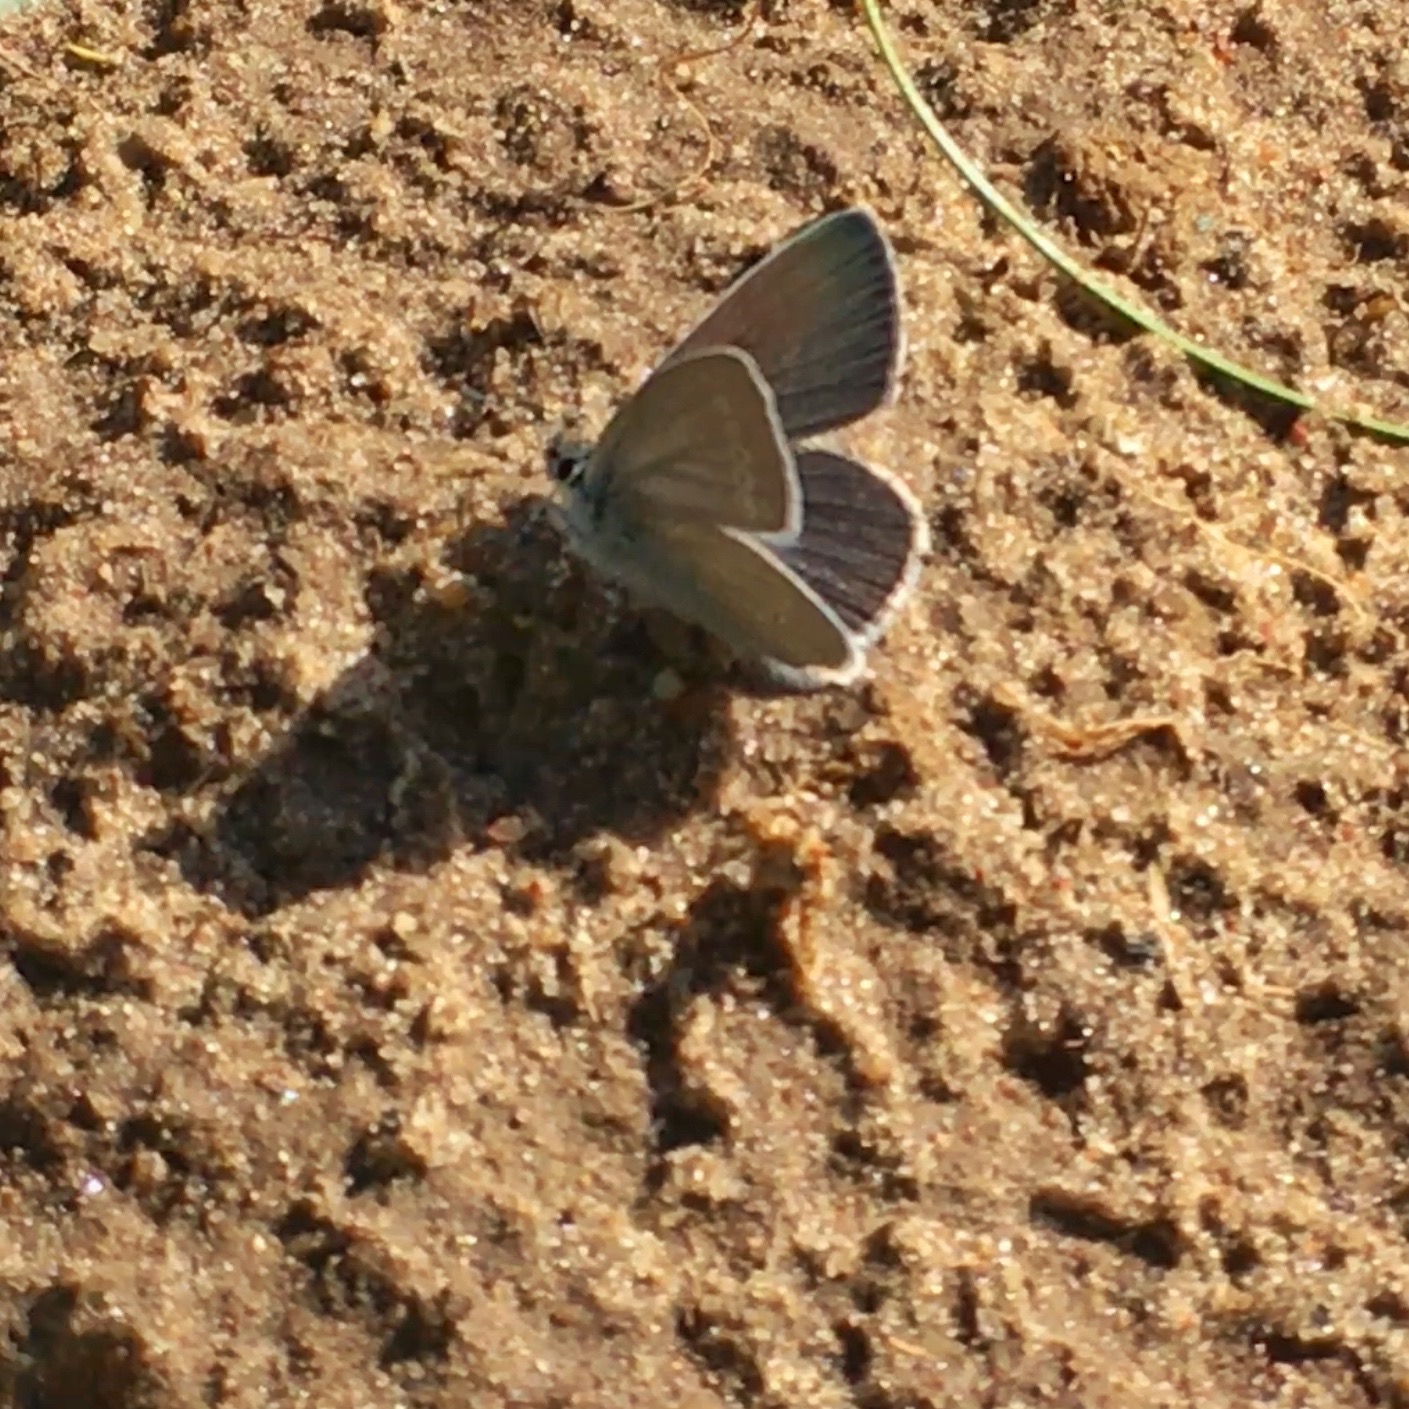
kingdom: Animalia
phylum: Arthropoda
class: Insecta
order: Lepidoptera
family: Lycaenidae
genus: Cupido
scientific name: Cupido minimus
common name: Dværgblåfugl
